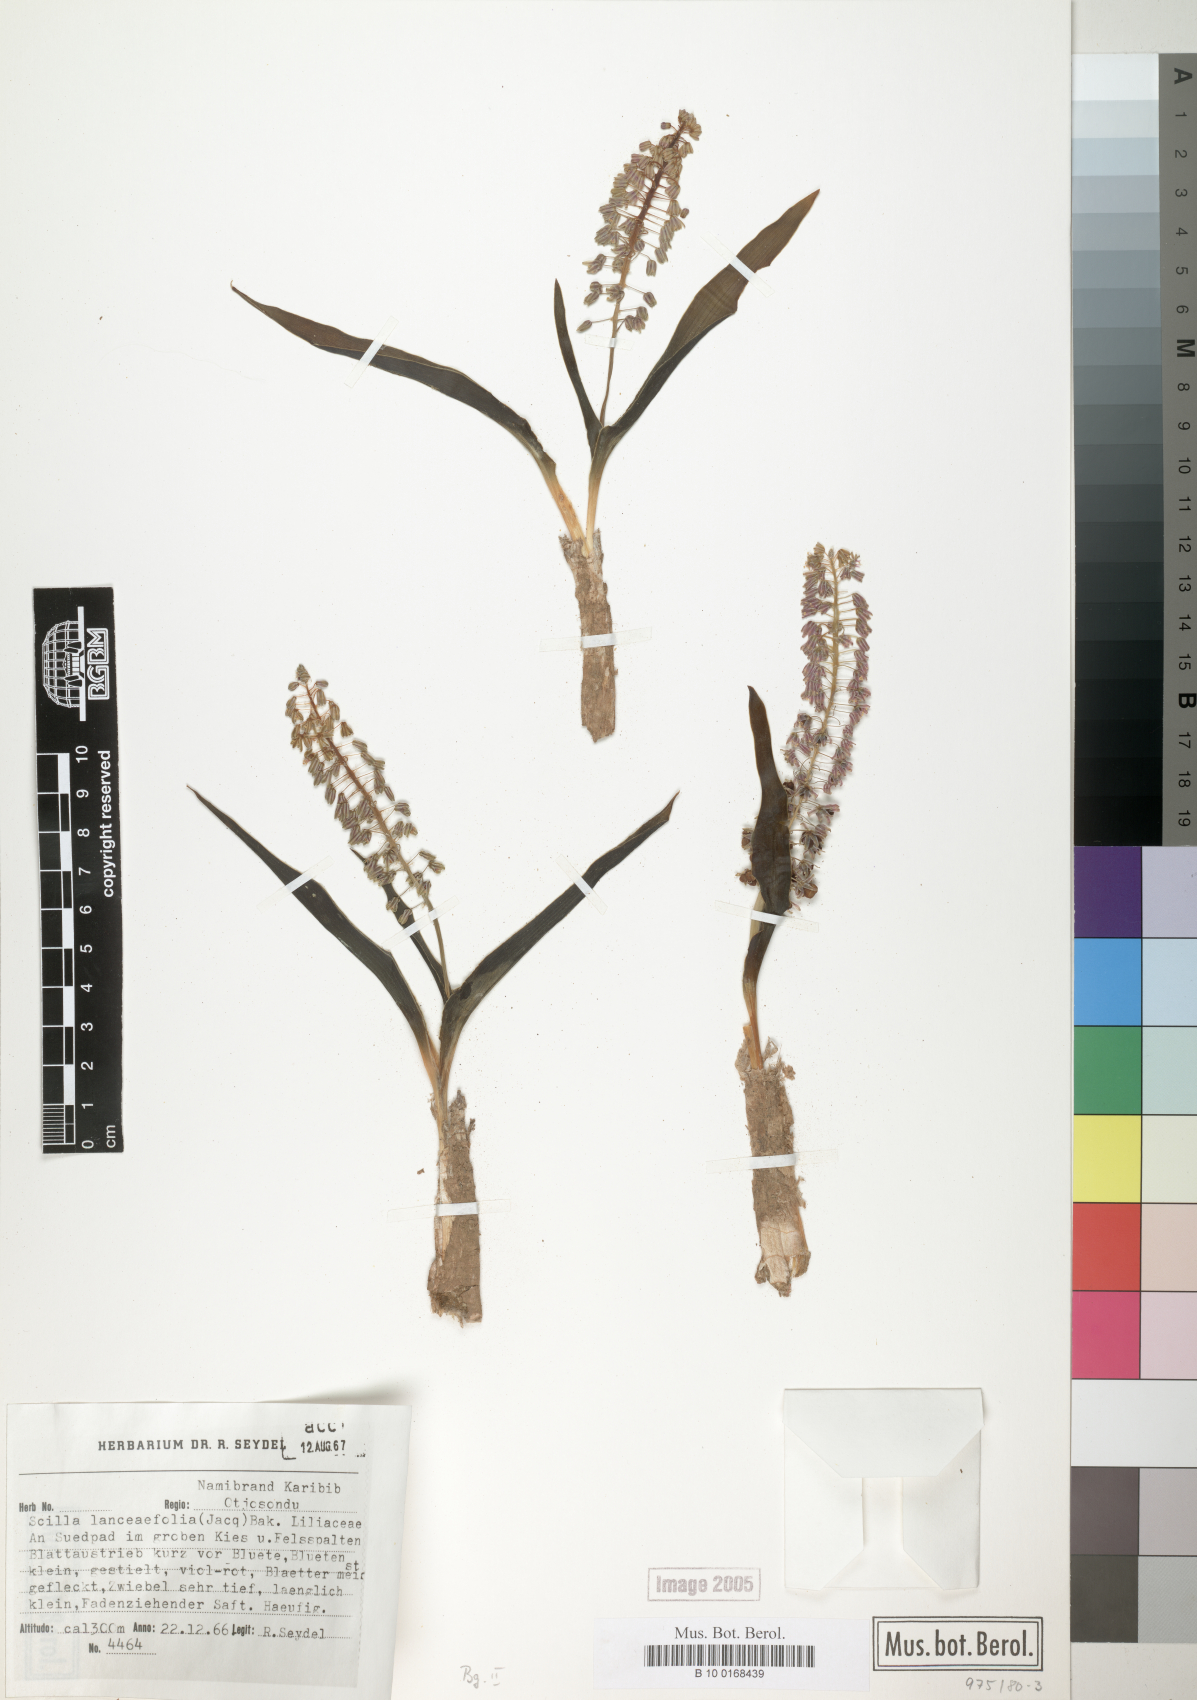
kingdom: Plantae
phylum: Tracheophyta
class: Liliopsida
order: Asparagales
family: Asparagaceae
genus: Ledebouria
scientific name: Ledebouria revoluta
